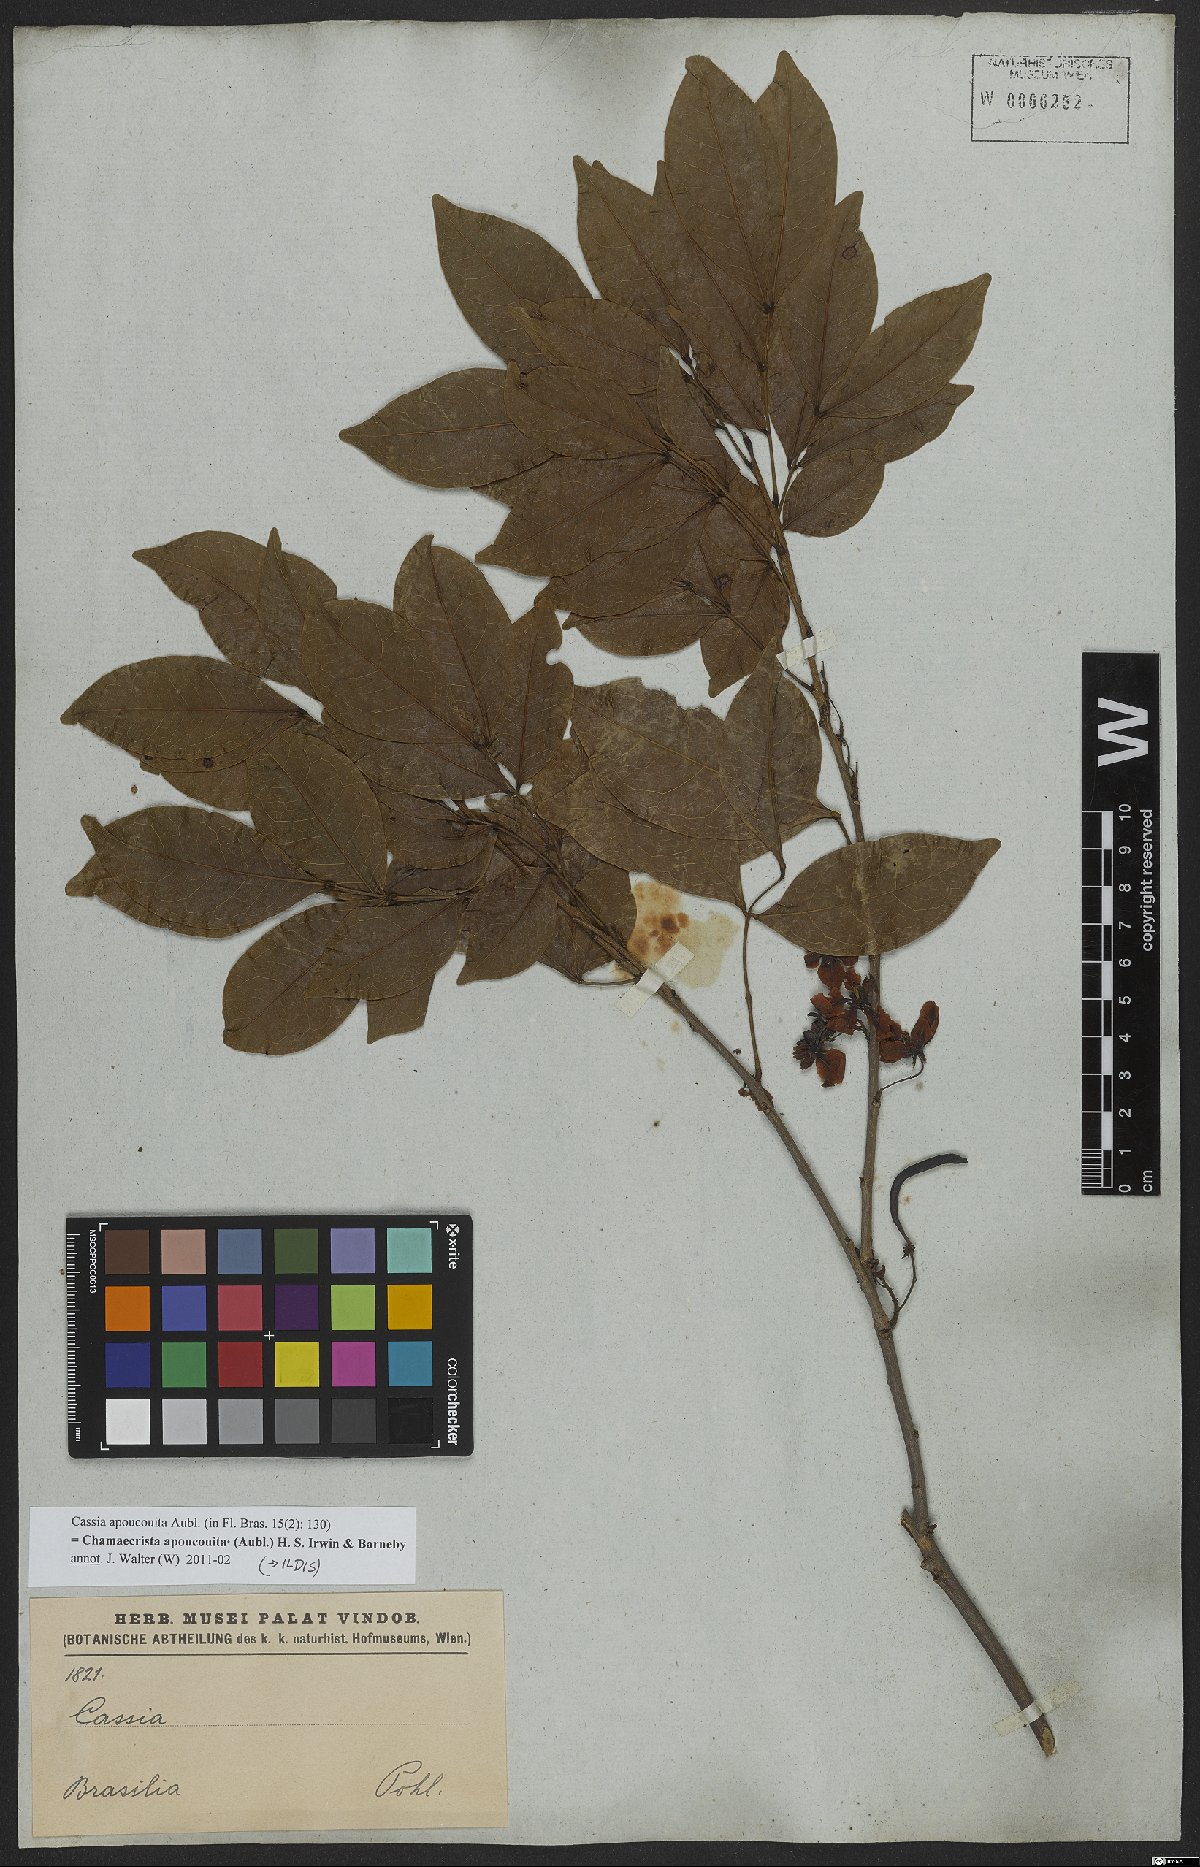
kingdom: Plantae
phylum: Tracheophyta
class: Magnoliopsida
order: Fabales
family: Fabaceae
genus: Chamaecrista
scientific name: Chamaecrista apoucouita
